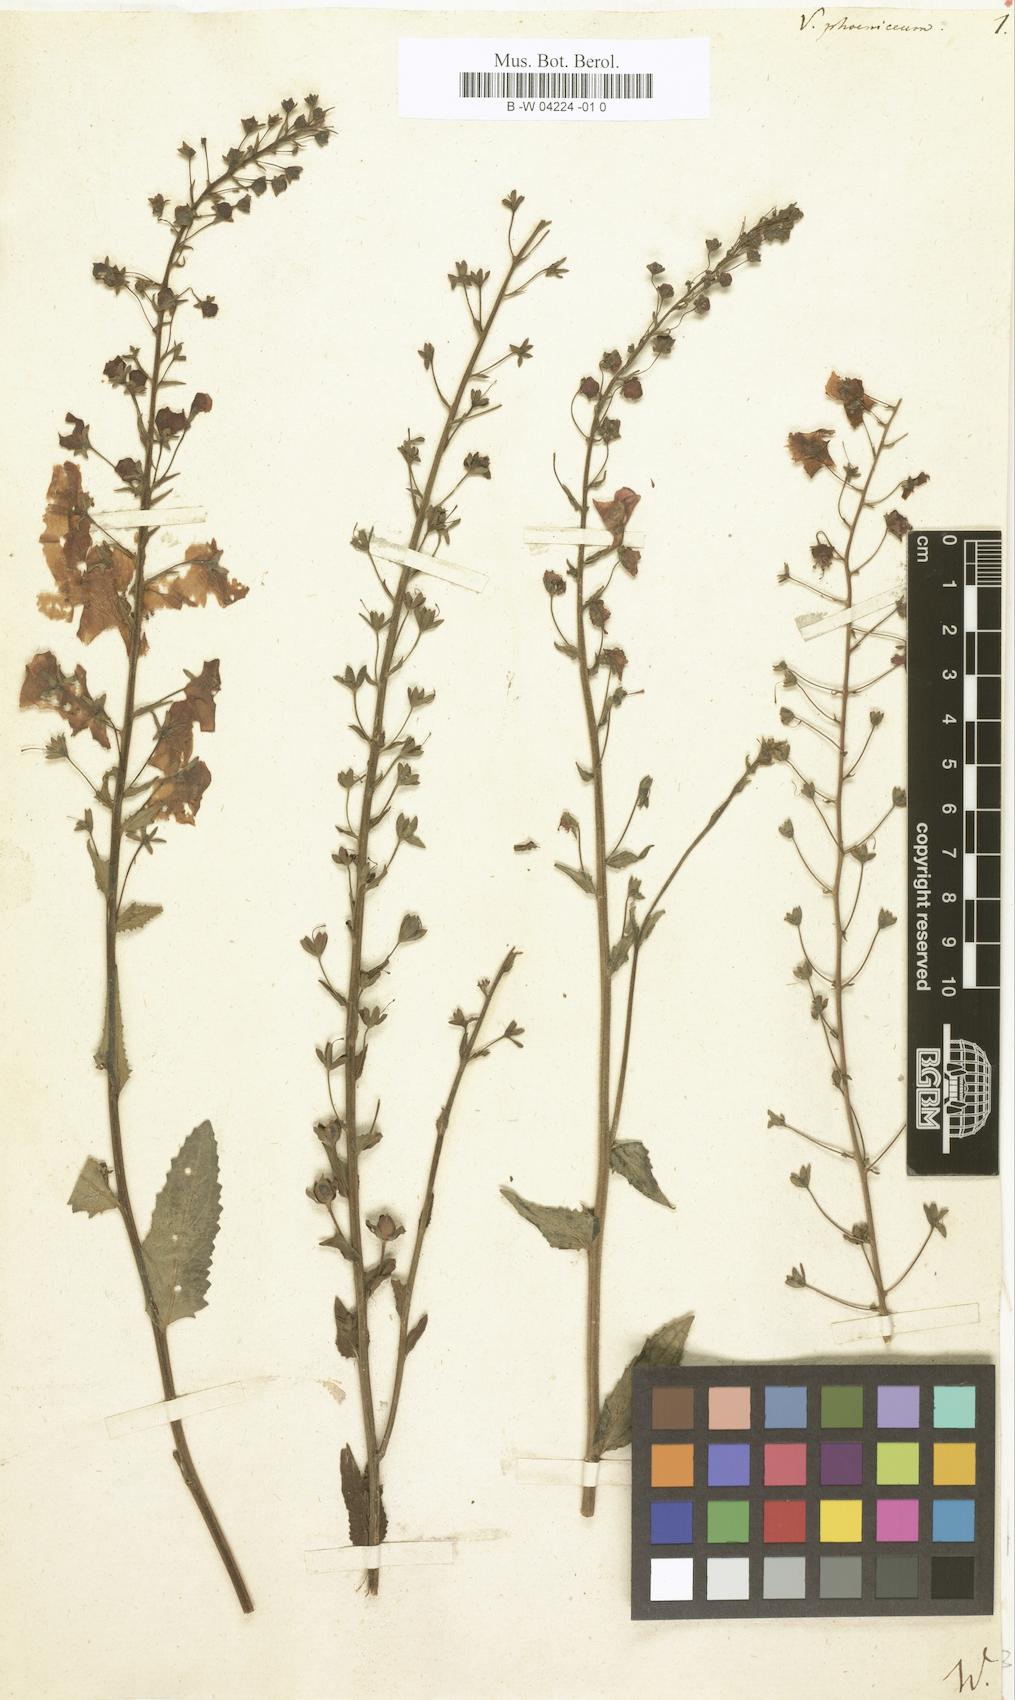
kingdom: Plantae
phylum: Tracheophyta
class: Magnoliopsida
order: Lamiales
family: Scrophulariaceae
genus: Verbascum
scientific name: Verbascum phoeniceum
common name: Purple mullein
